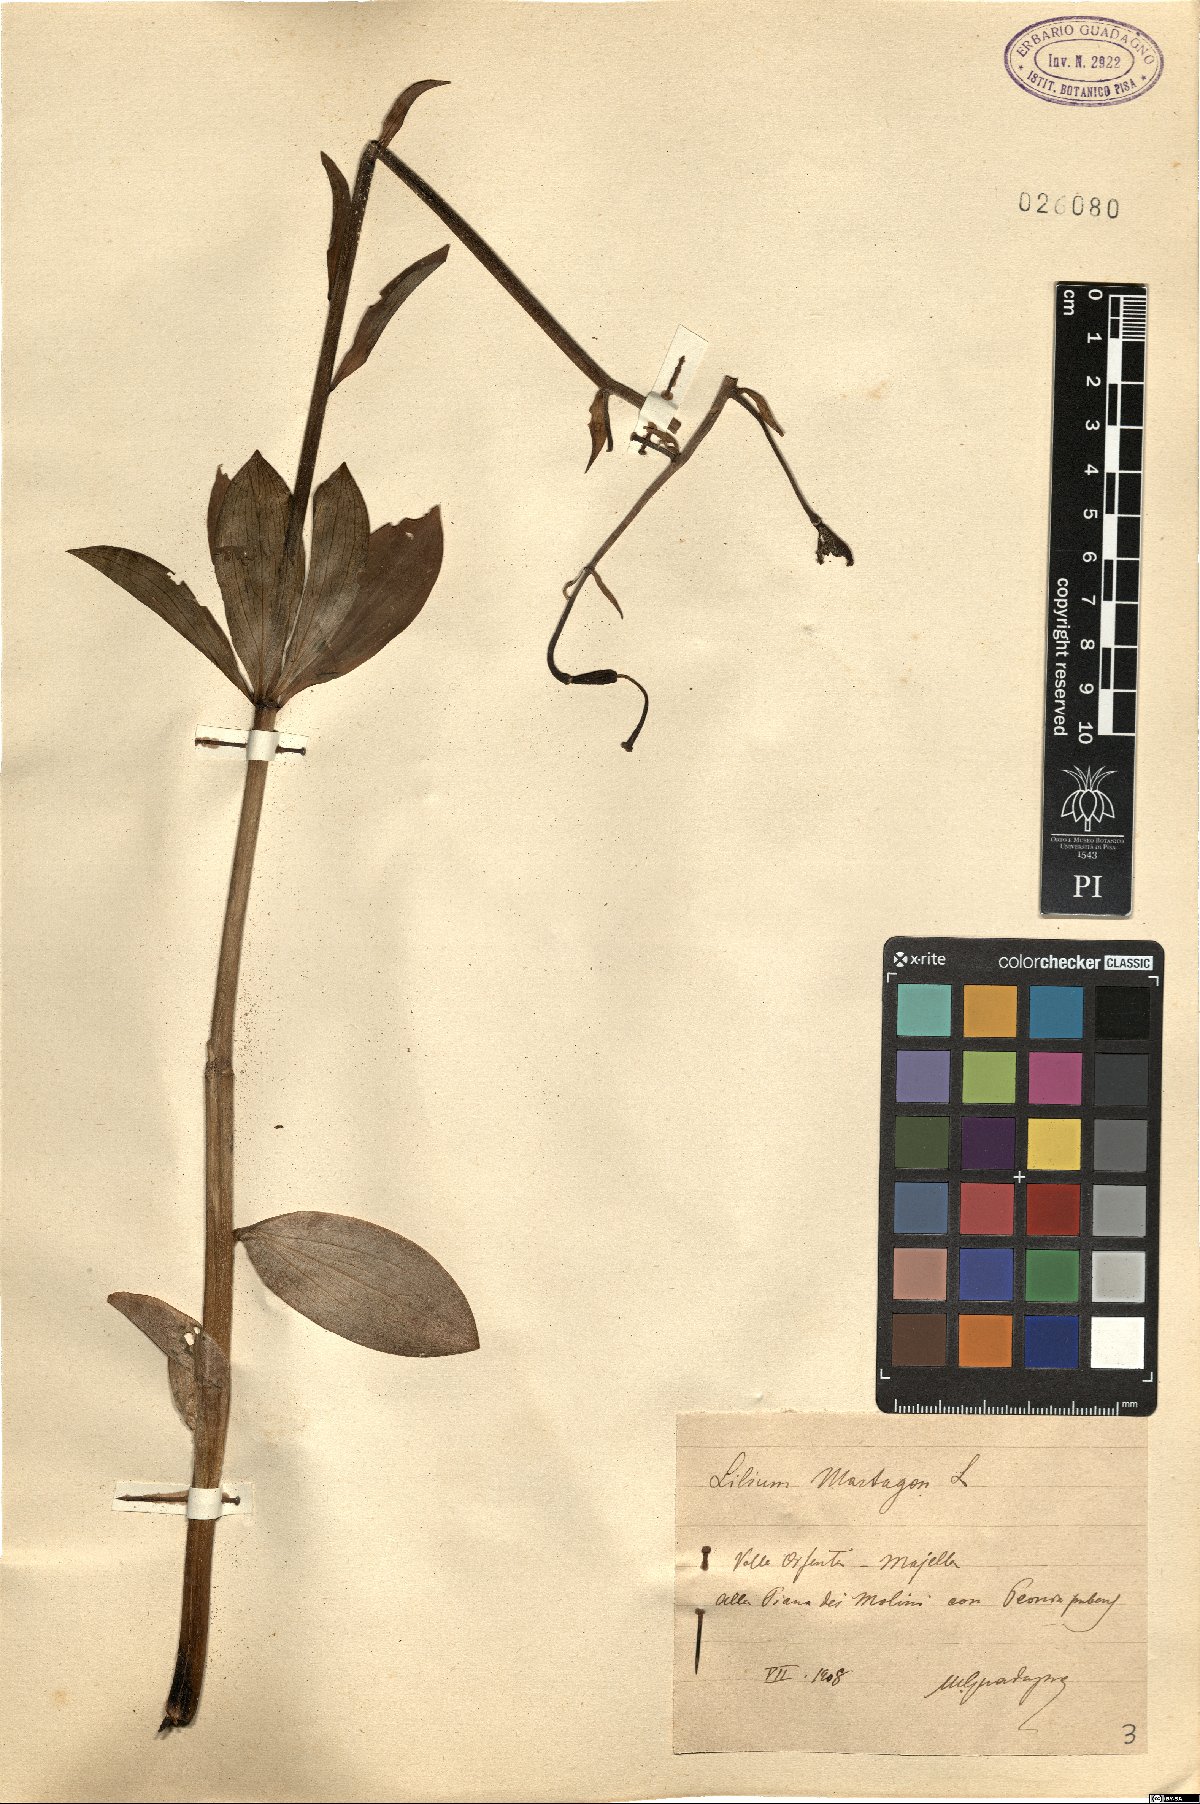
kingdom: Plantae
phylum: Tracheophyta
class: Liliopsida
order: Liliales
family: Liliaceae
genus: Lilium
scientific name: Lilium martagon
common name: Martagon lily
